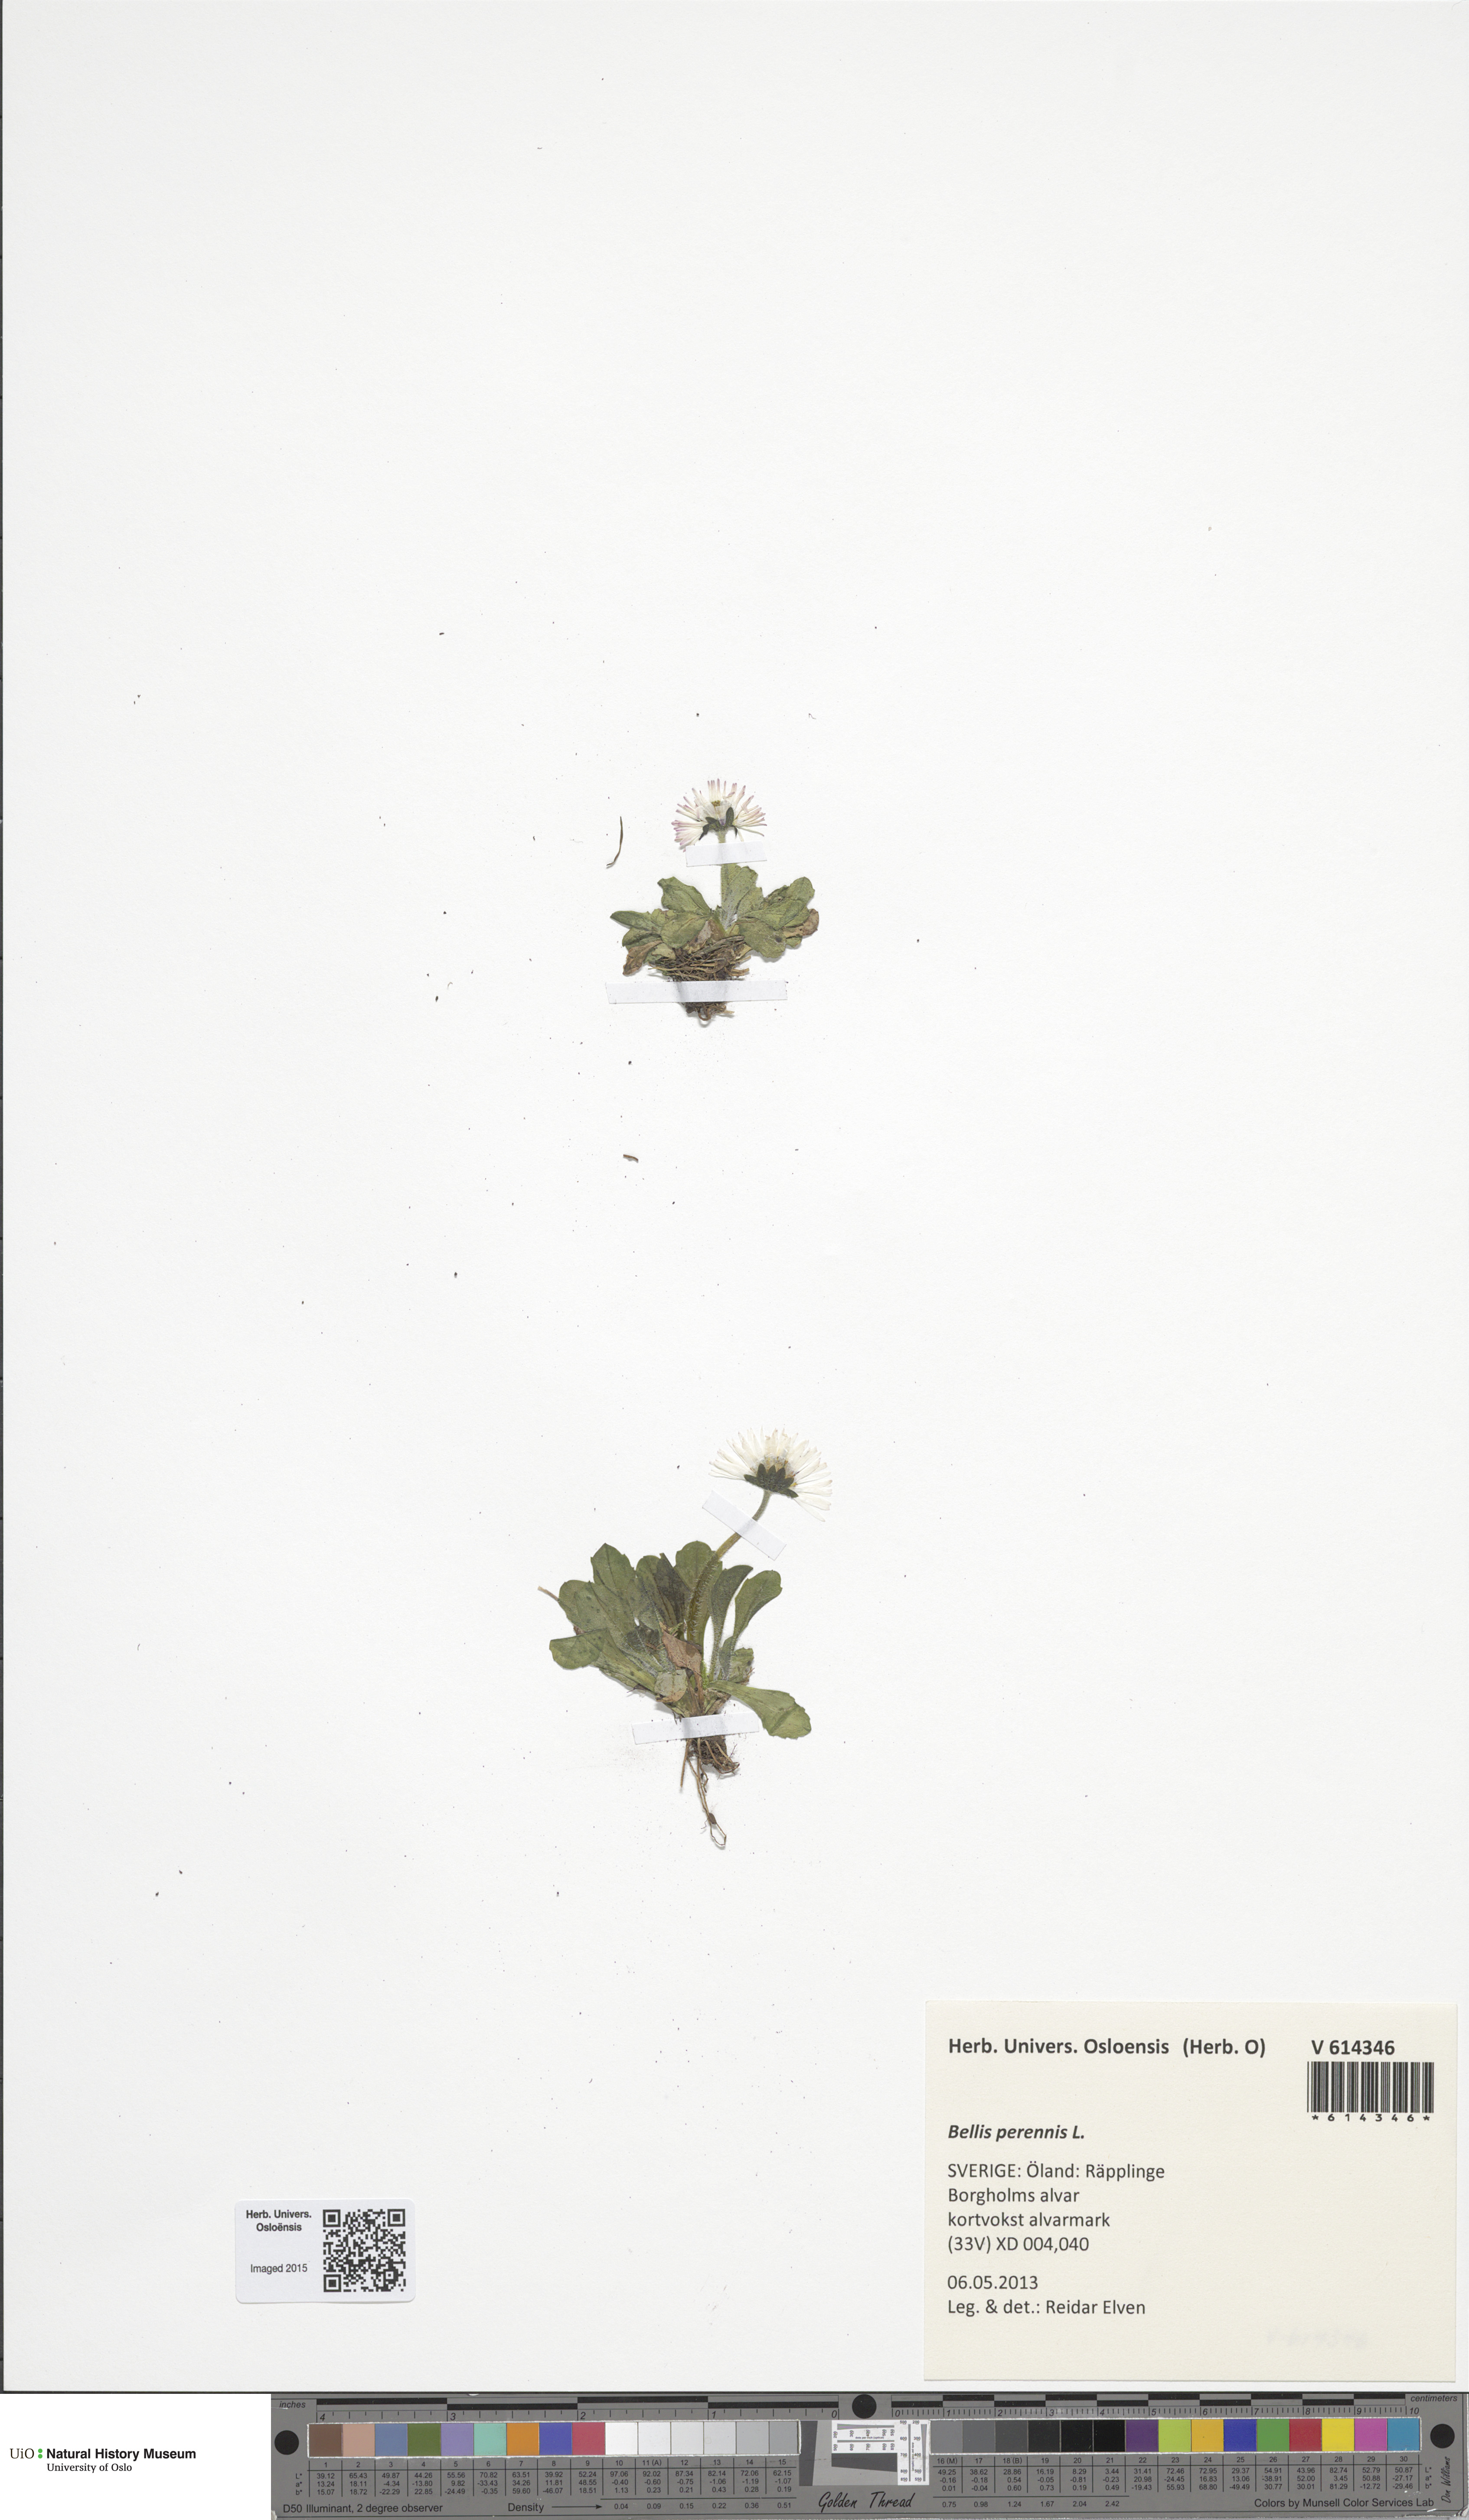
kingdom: Plantae
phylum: Tracheophyta
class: Magnoliopsida
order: Asterales
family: Asteraceae
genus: Bellis
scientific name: Bellis perennis
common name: Lawndaisy
